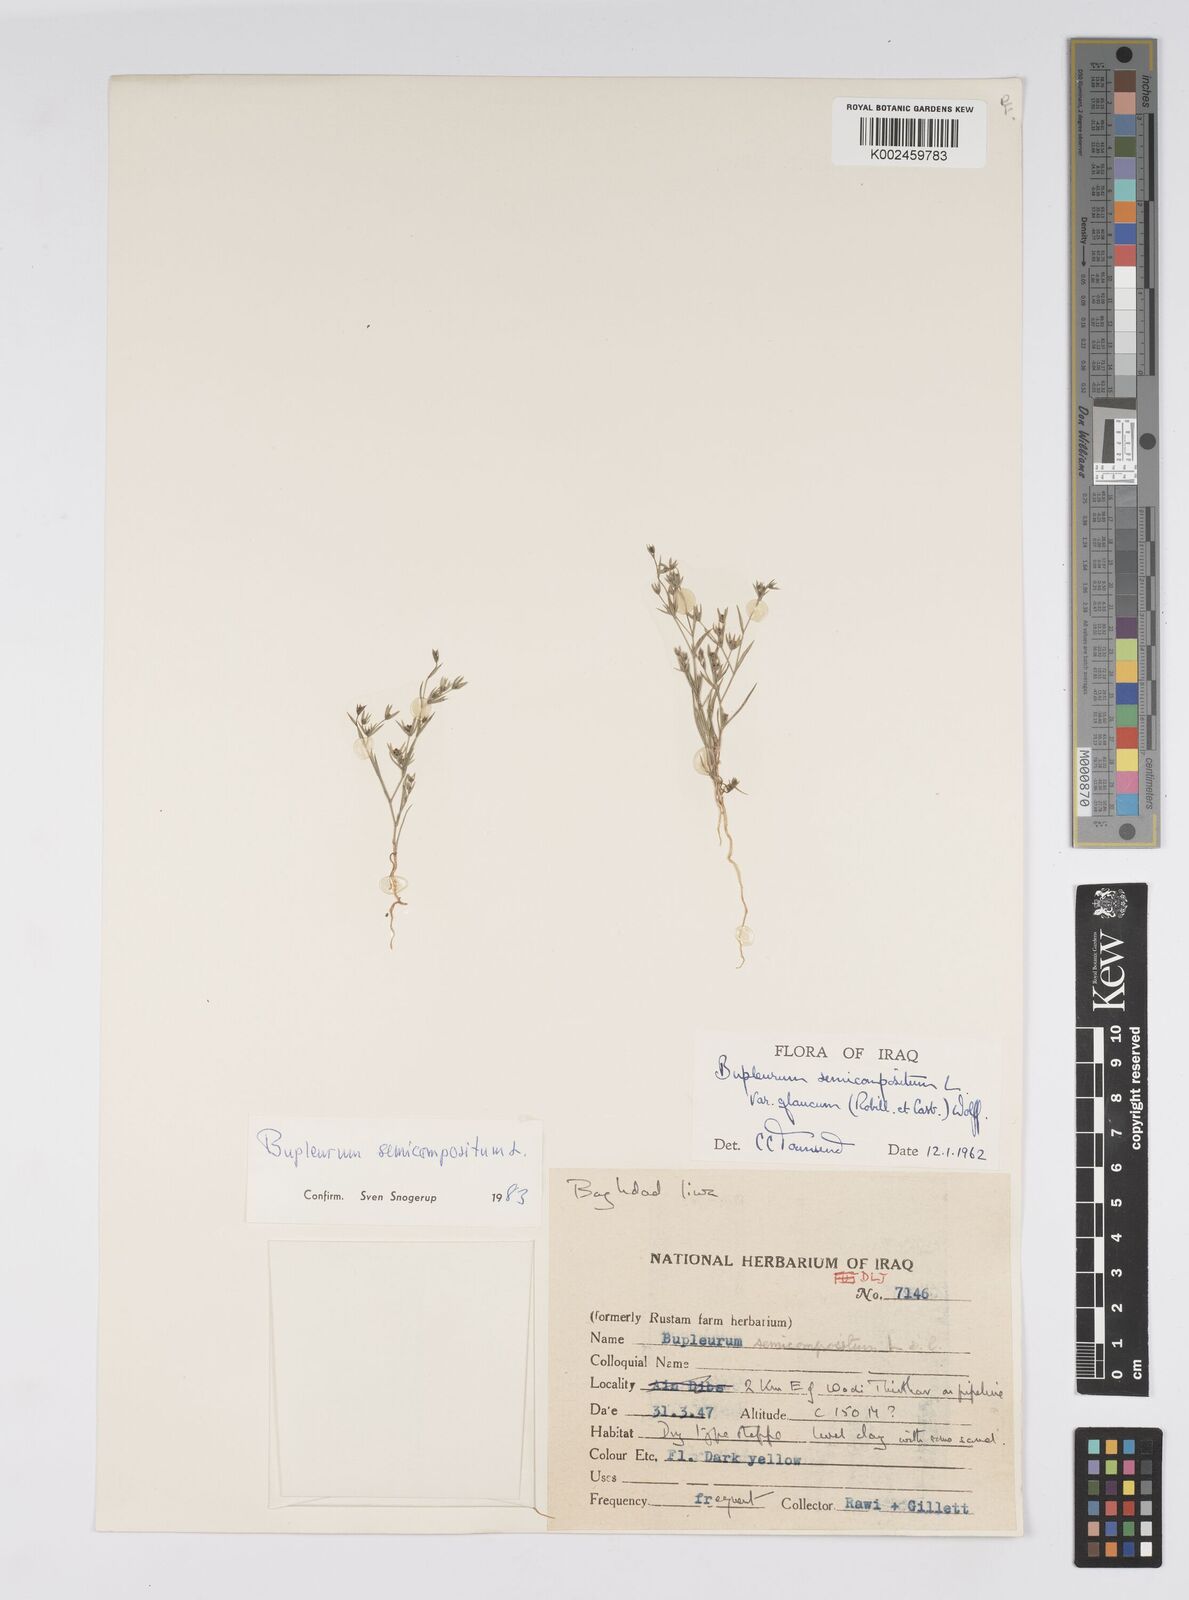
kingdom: Plantae
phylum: Tracheophyta
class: Magnoliopsida
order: Apiales
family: Apiaceae
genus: Bupleurum
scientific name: Bupleurum semicompositum
